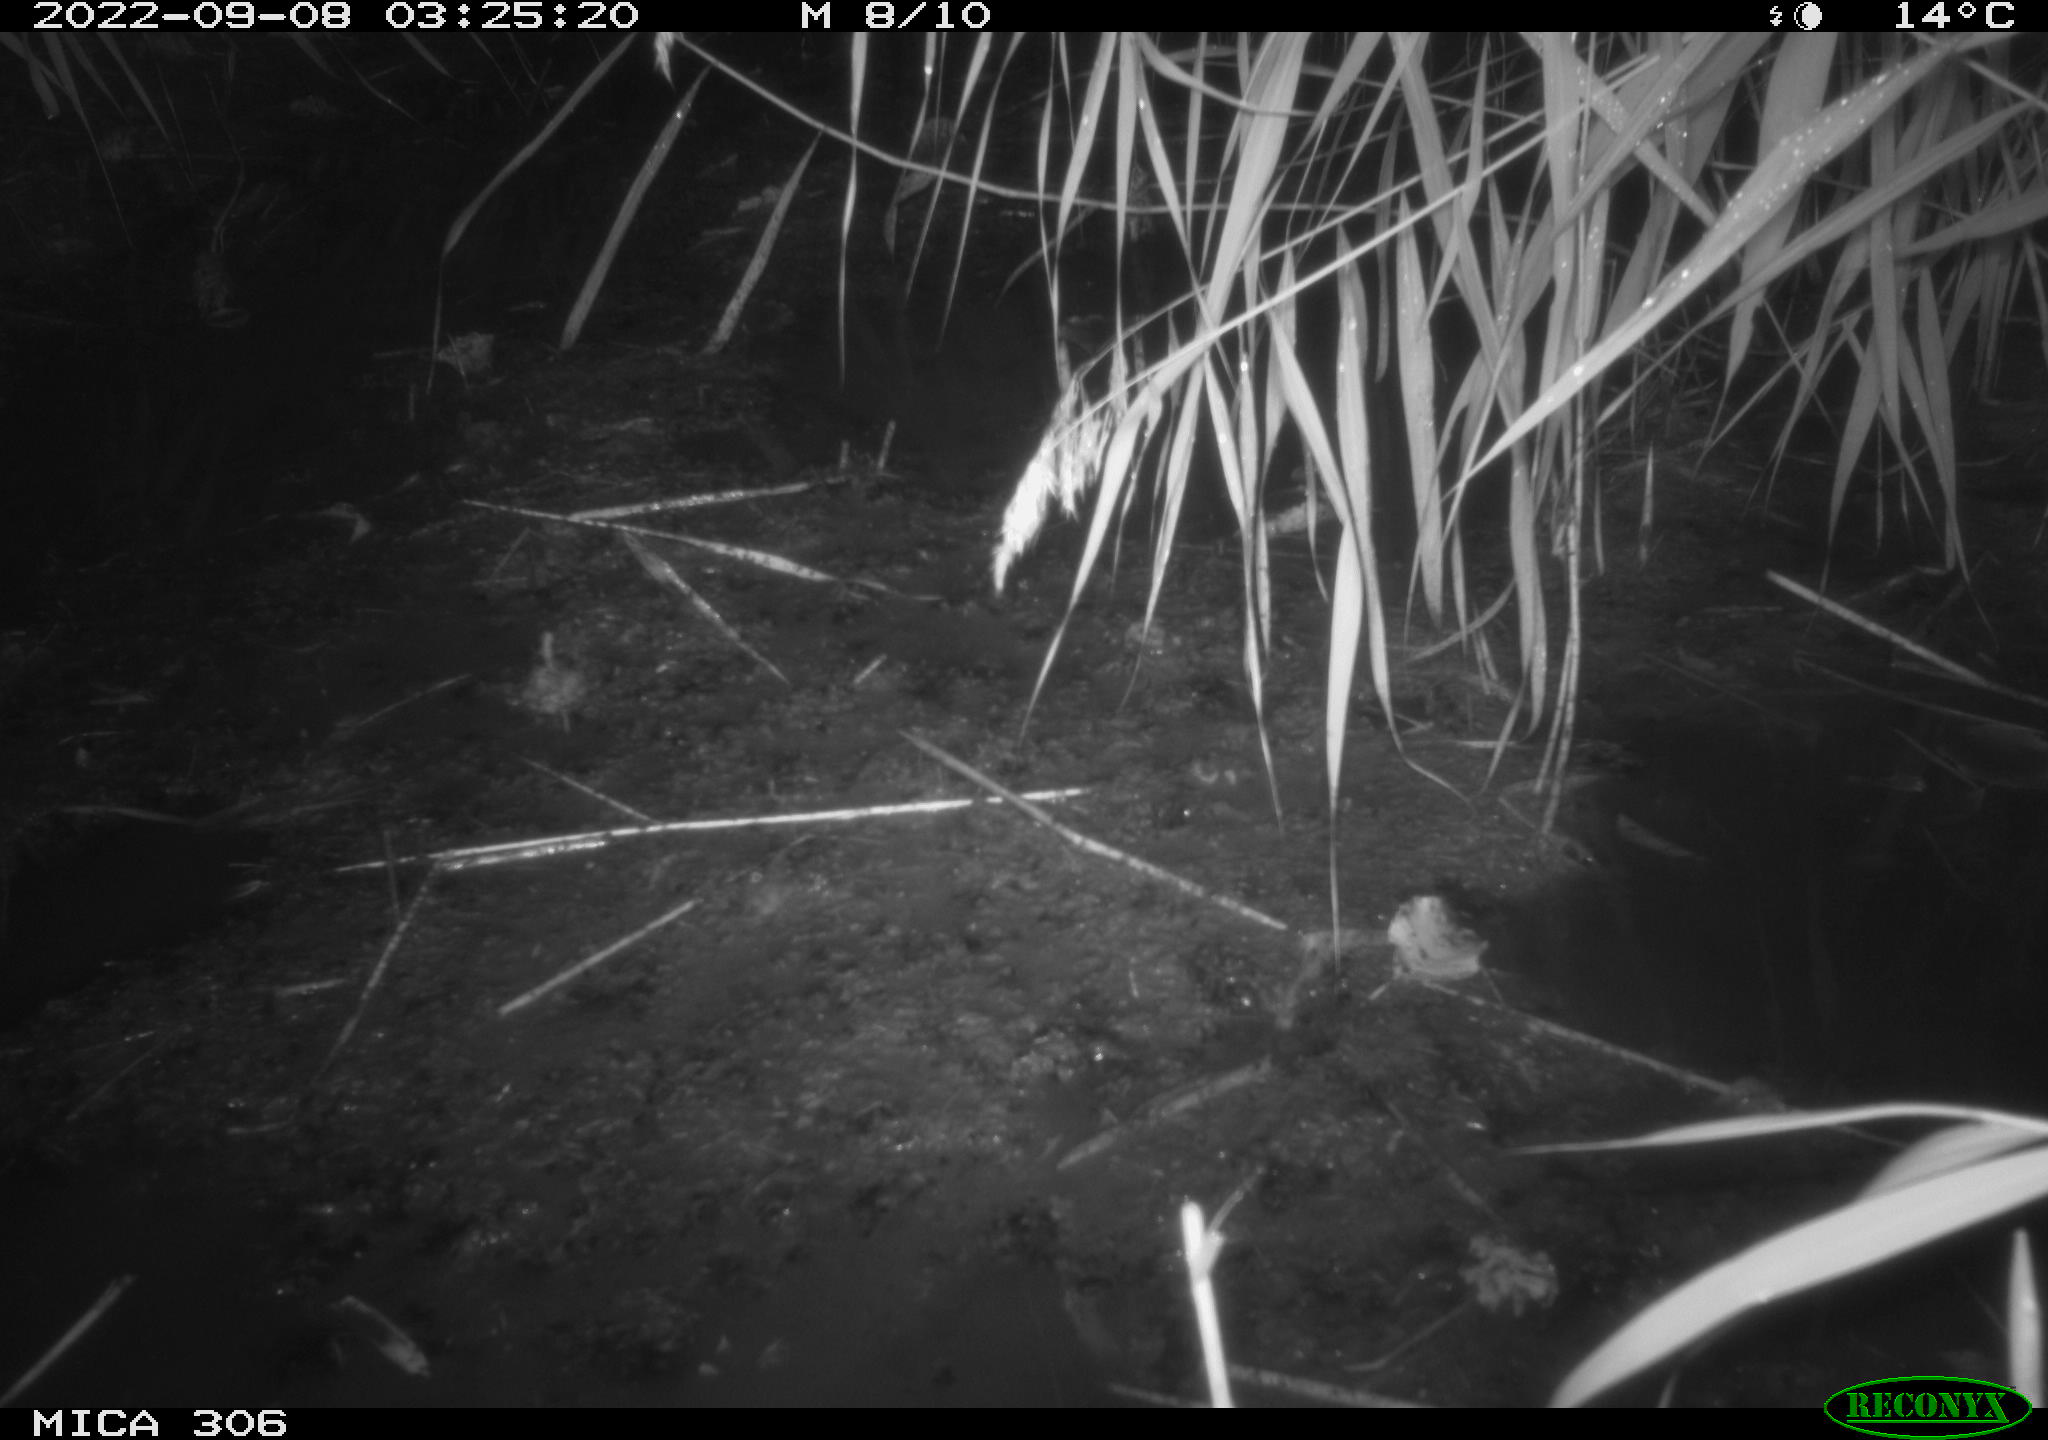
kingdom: Animalia
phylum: Chordata
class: Mammalia
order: Rodentia
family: Muridae
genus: Rattus
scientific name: Rattus norvegicus
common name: Brown rat
